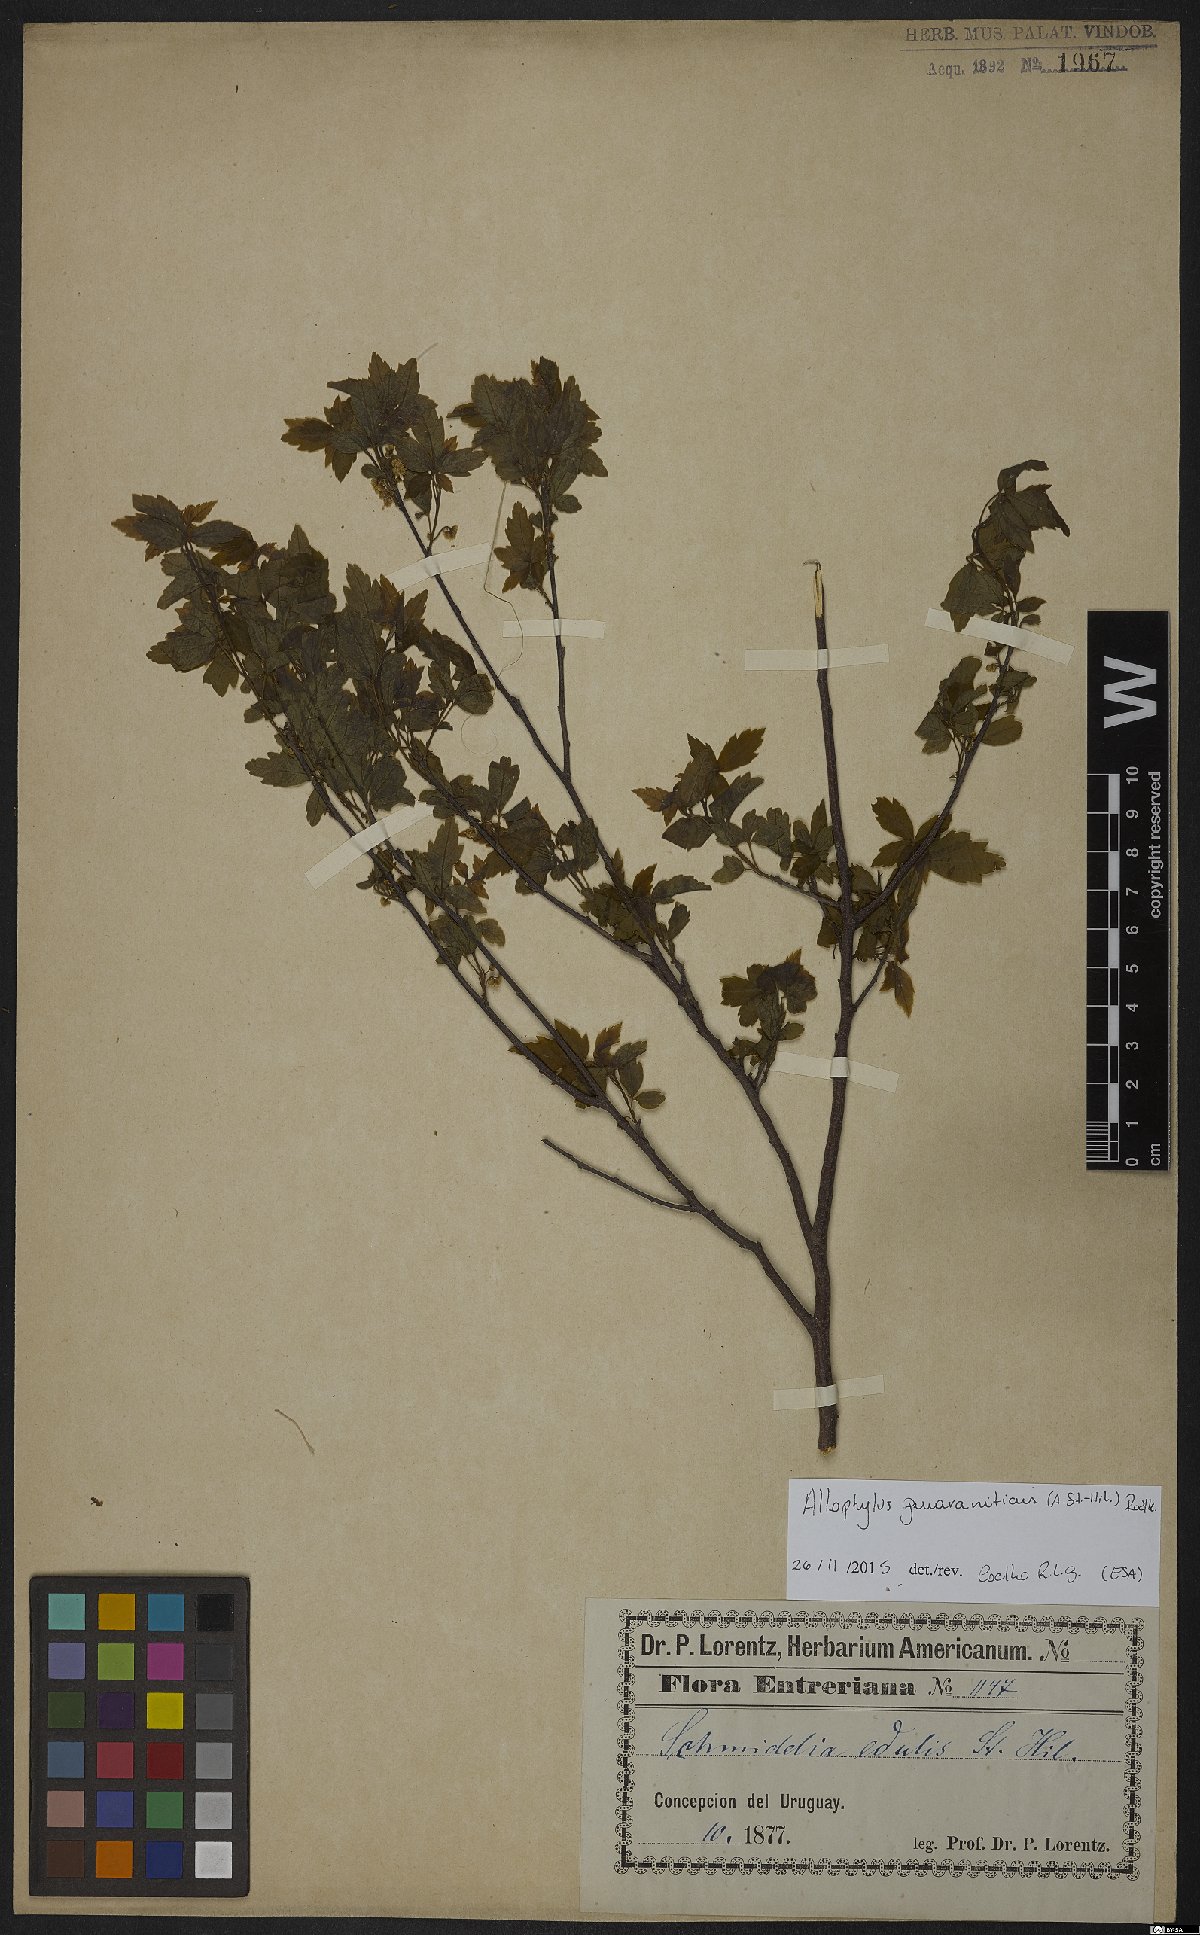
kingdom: Plantae
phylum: Tracheophyta
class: Magnoliopsida
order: Sapindales
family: Sapindaceae
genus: Allophylus
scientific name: Allophylus guaraniticus
